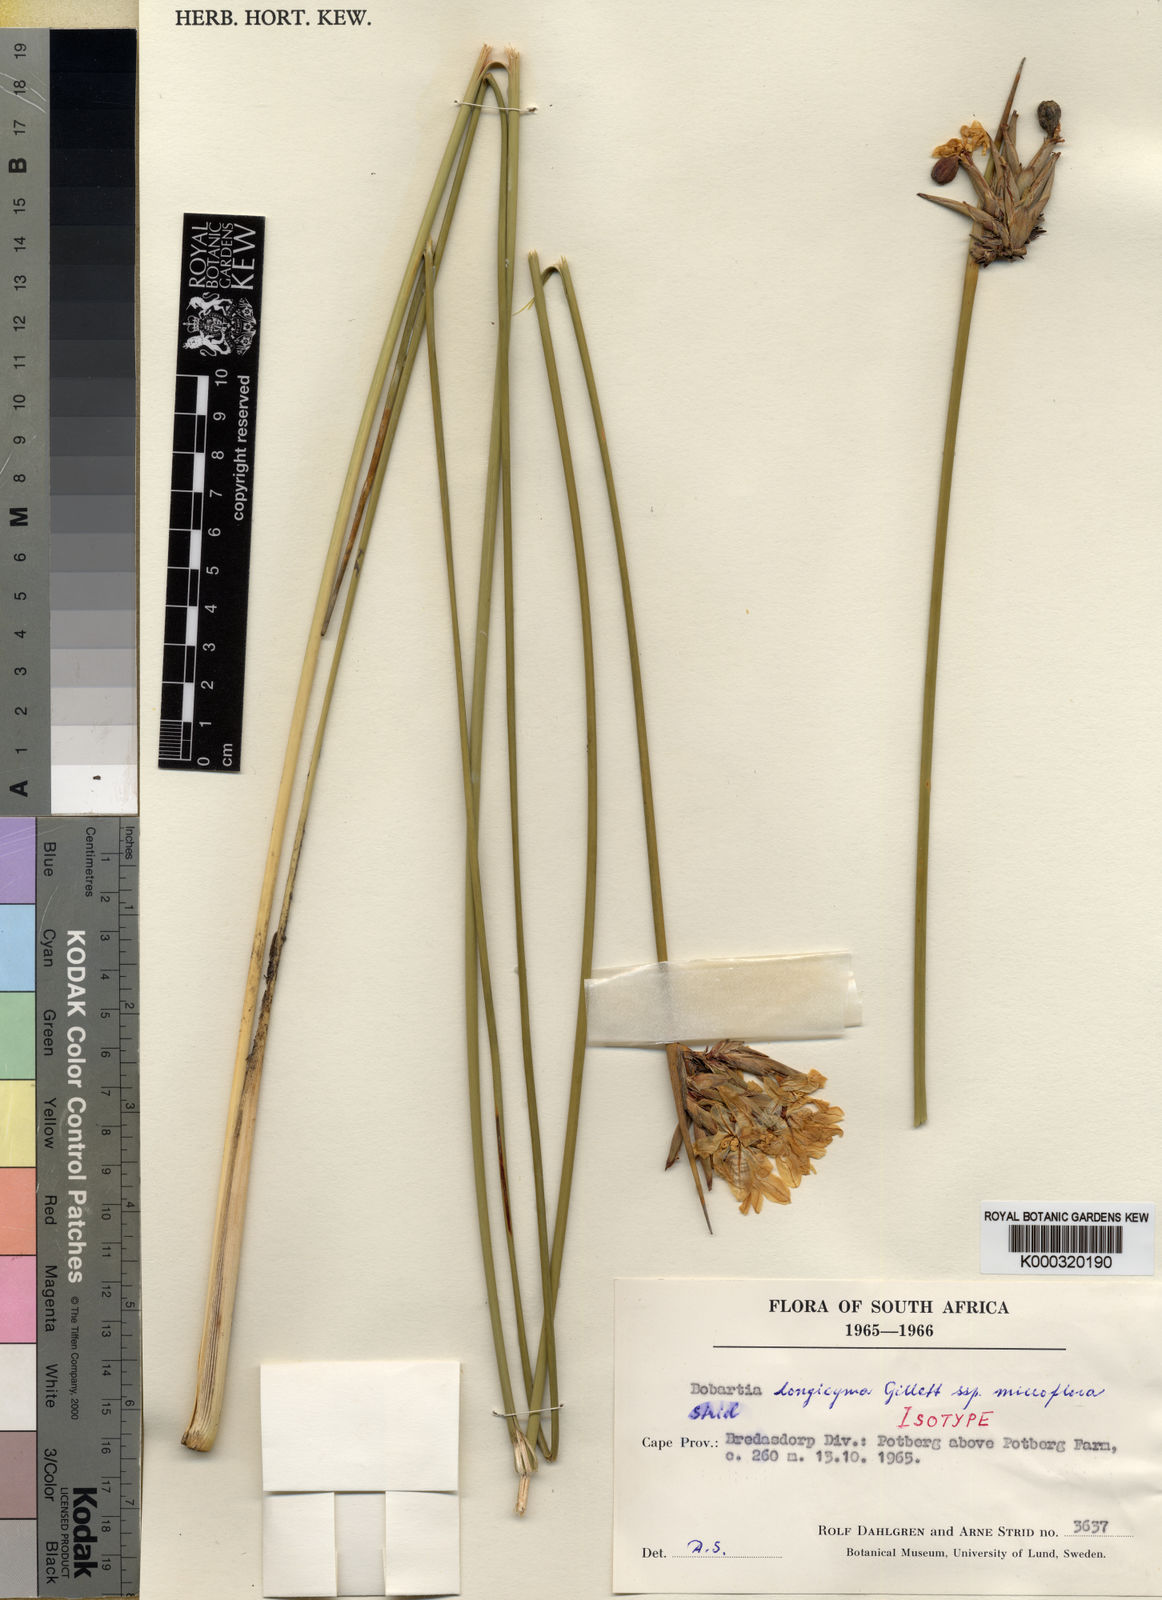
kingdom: Plantae
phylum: Tracheophyta
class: Liliopsida
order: Asparagales
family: Iridaceae
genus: Bobartia
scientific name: Bobartia longicyma
